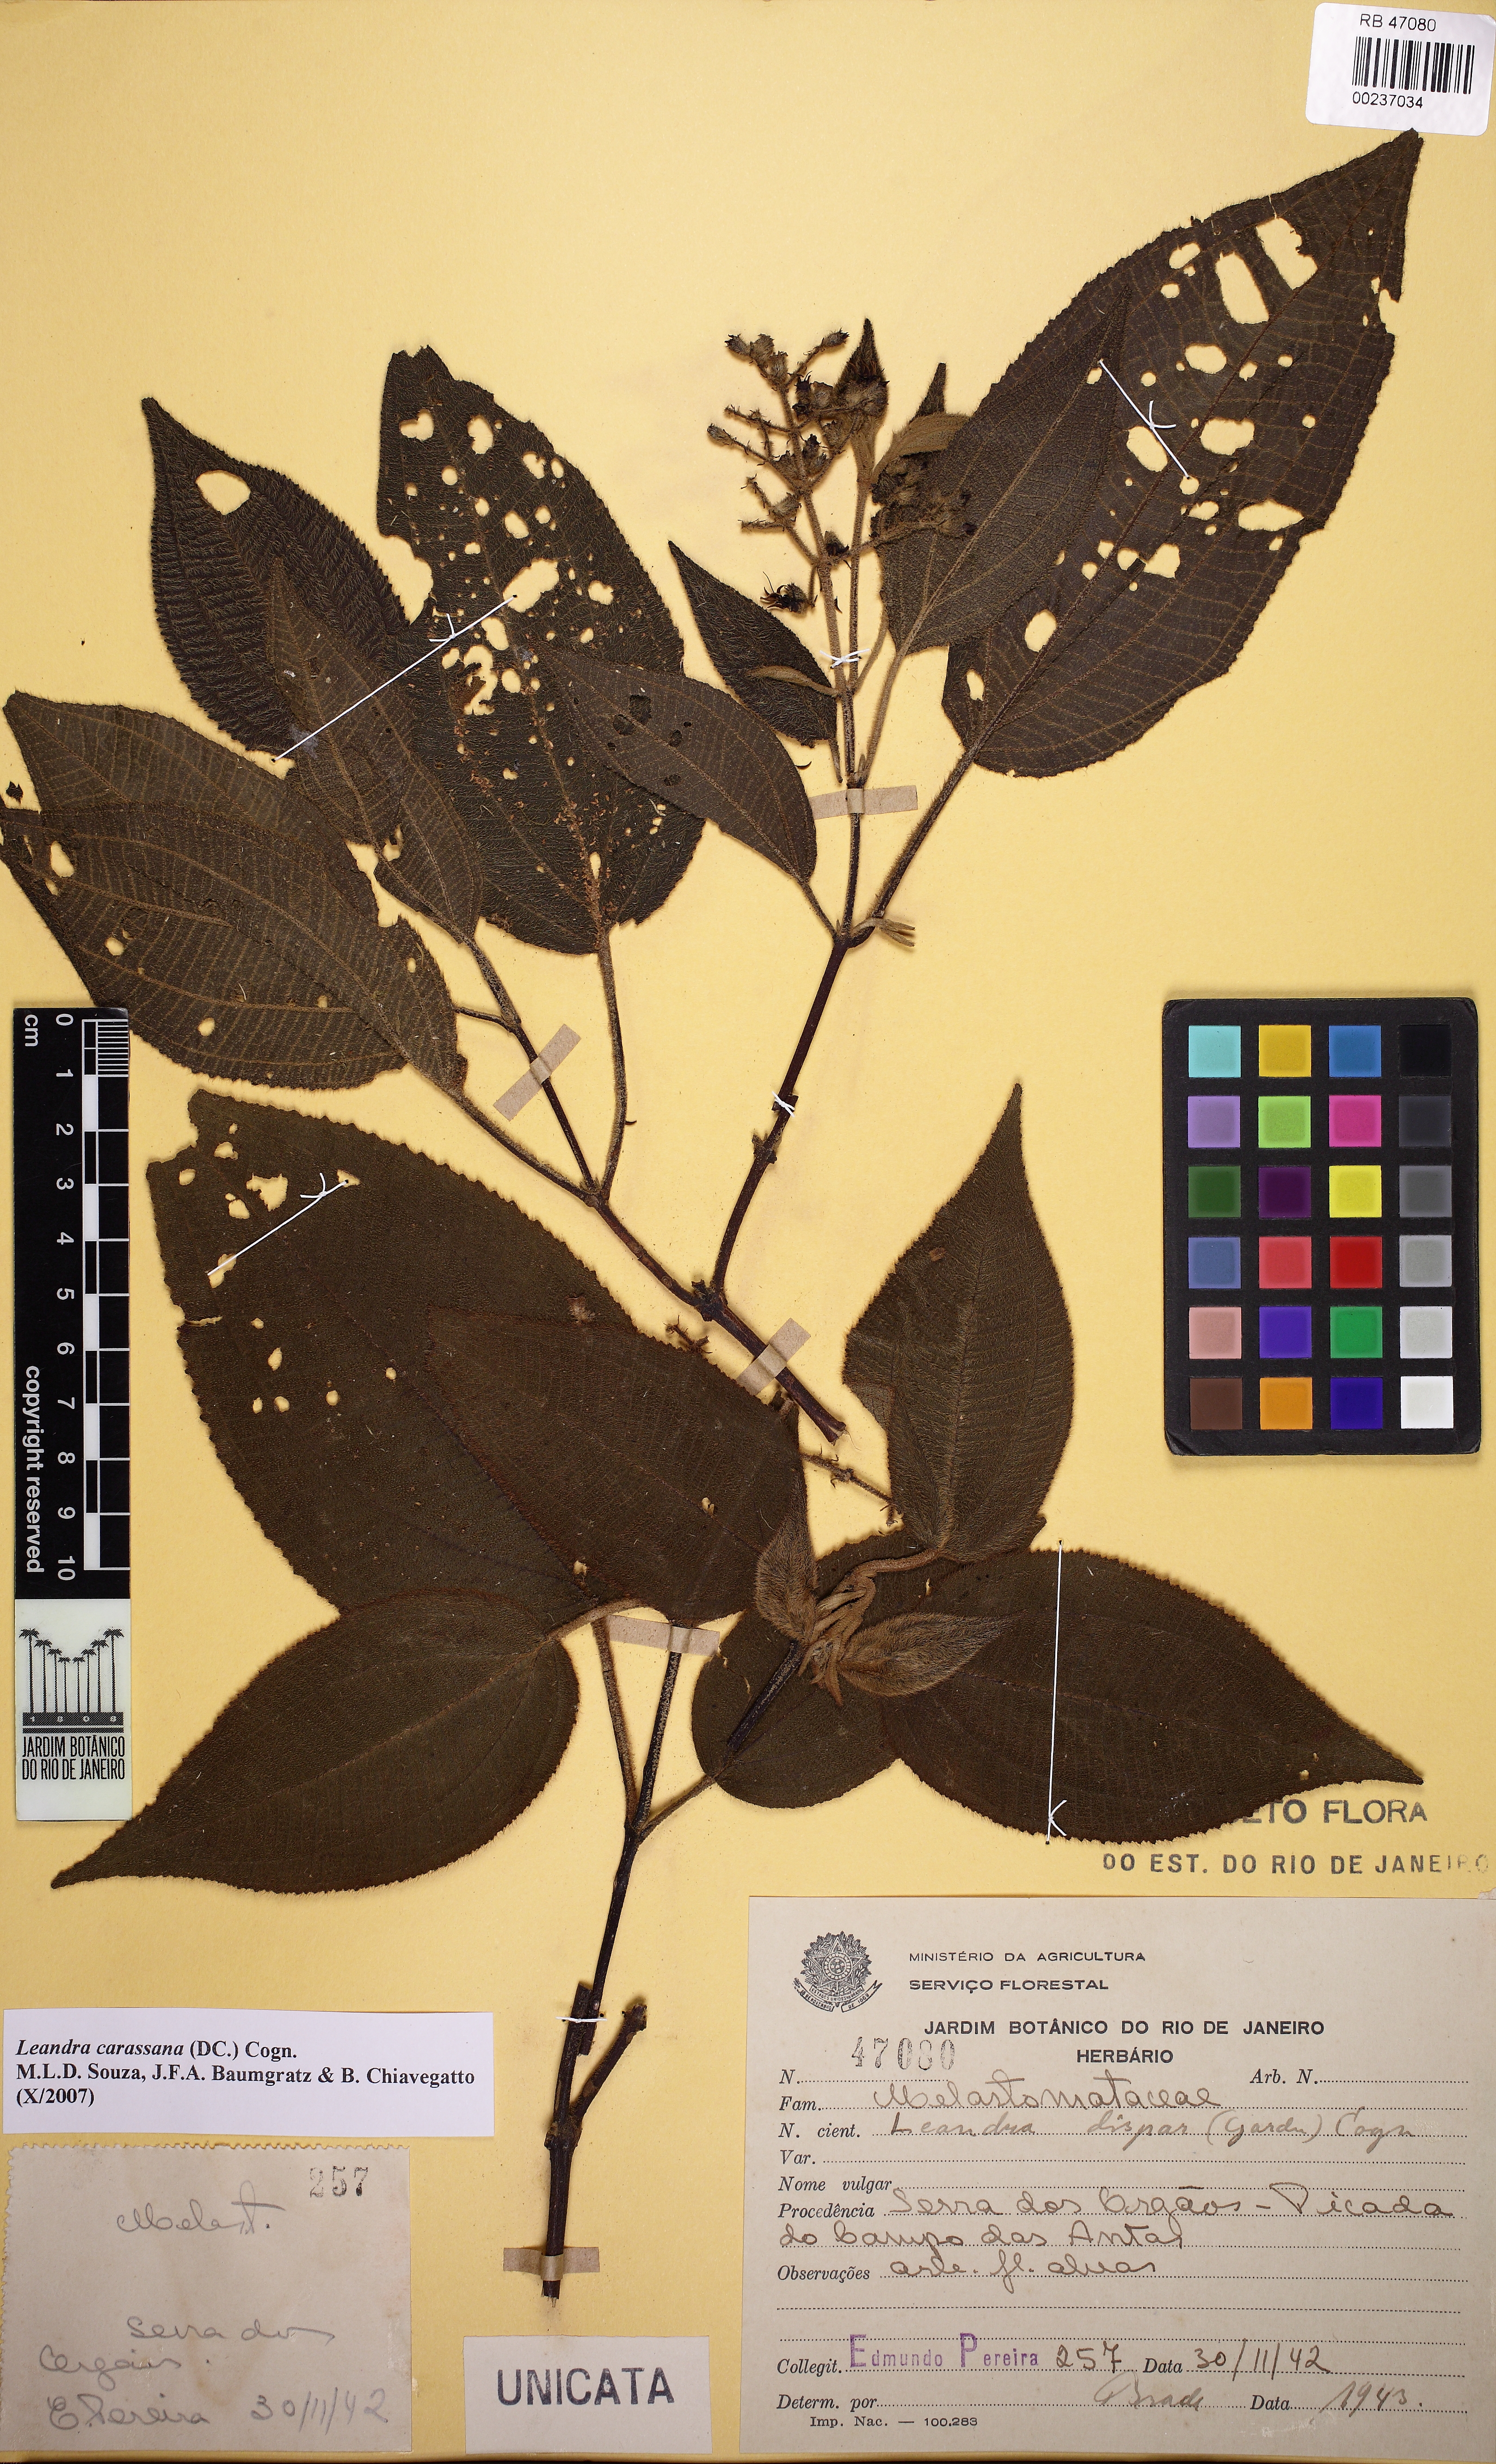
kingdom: Plantae
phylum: Tracheophyta
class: Magnoliopsida
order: Myrtales
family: Melastomataceae
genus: Miconia
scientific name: Miconia sublanata
